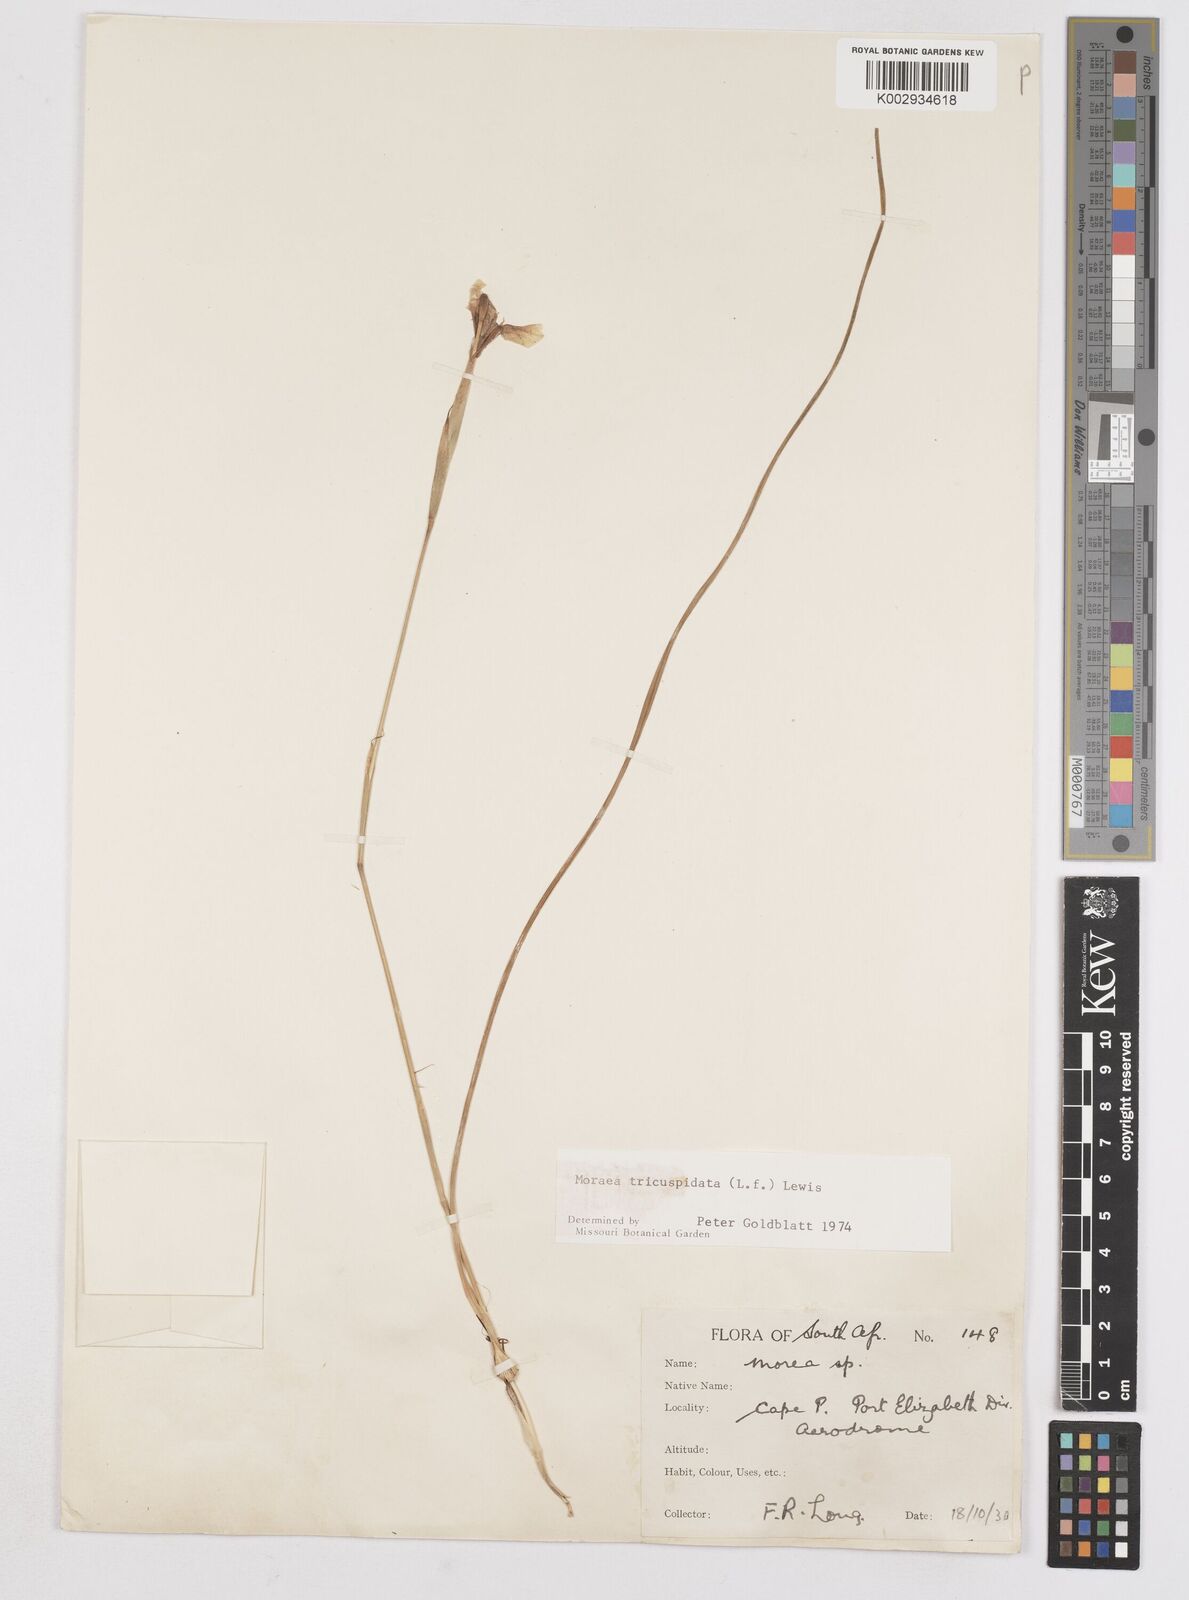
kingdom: Plantae
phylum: Tracheophyta
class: Liliopsida
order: Asparagales
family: Iridaceae
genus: Moraea
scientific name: Moraea tricuspidata
